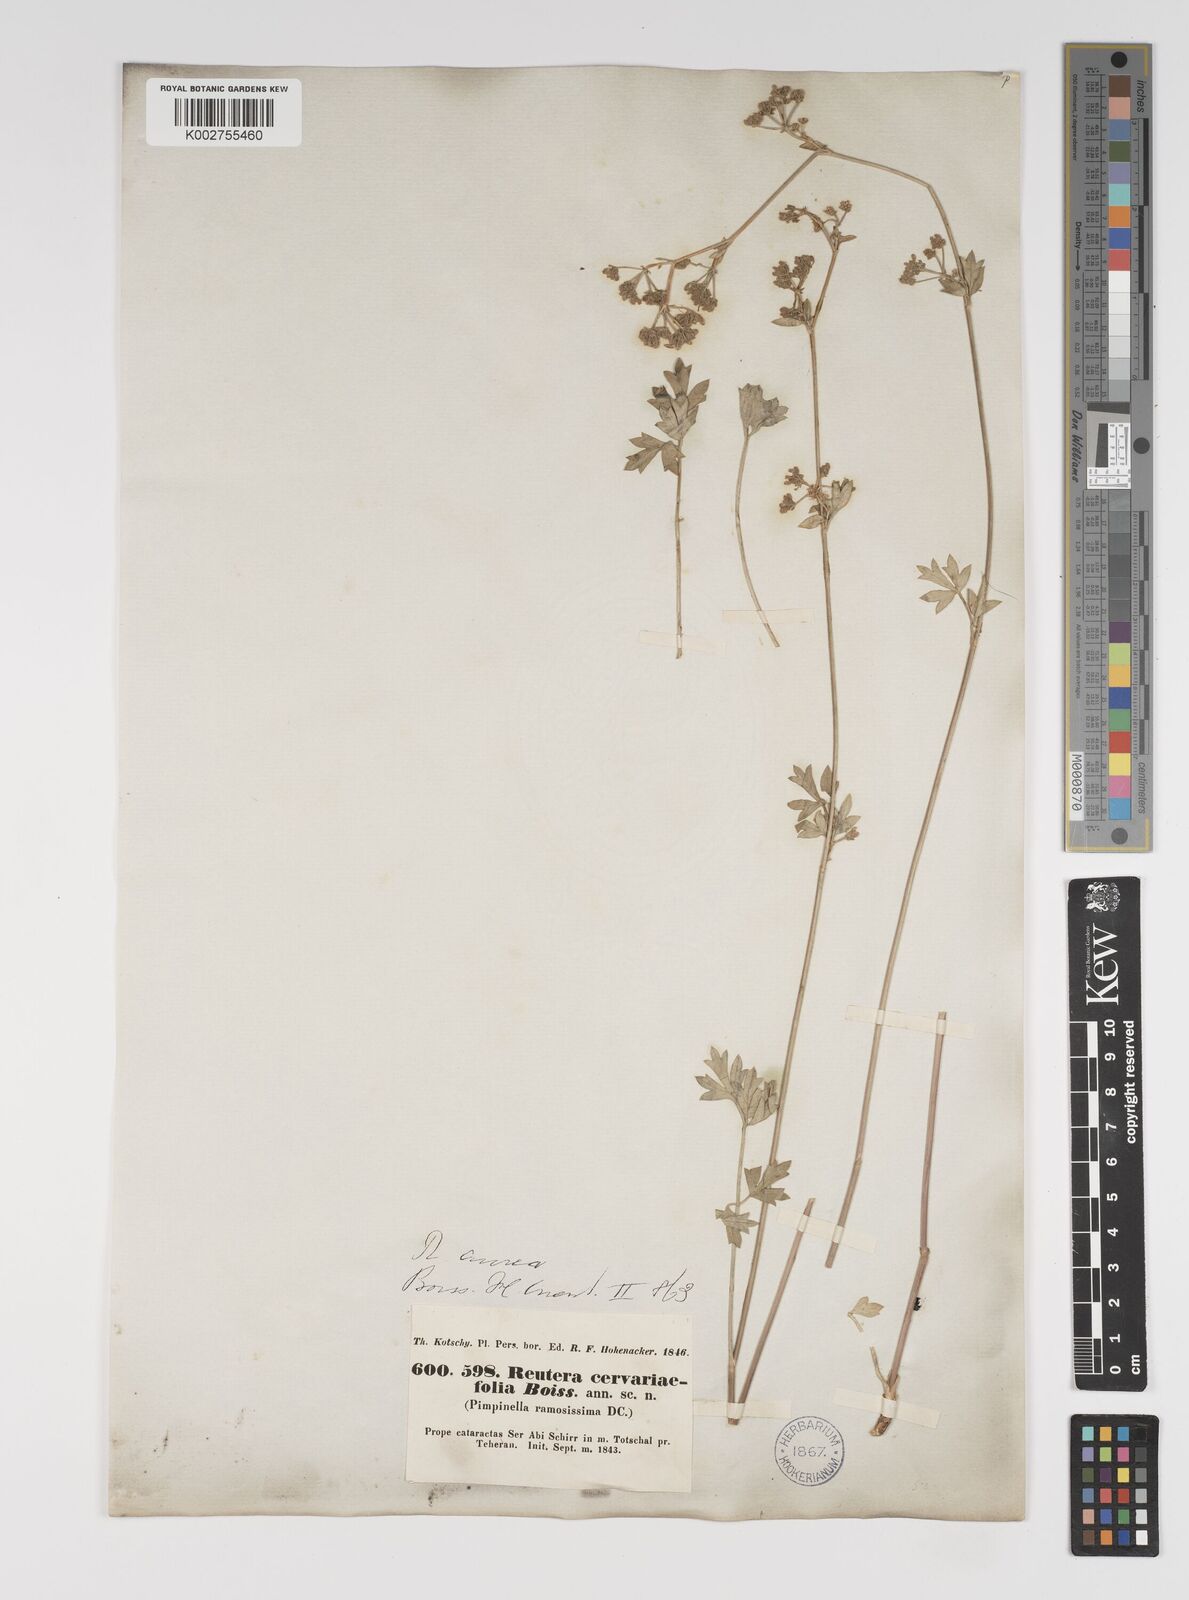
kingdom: Plantae
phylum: Tracheophyta
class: Magnoliopsida
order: Apiales
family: Apiaceae
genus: Pimpinella
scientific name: Pimpinella aurea
